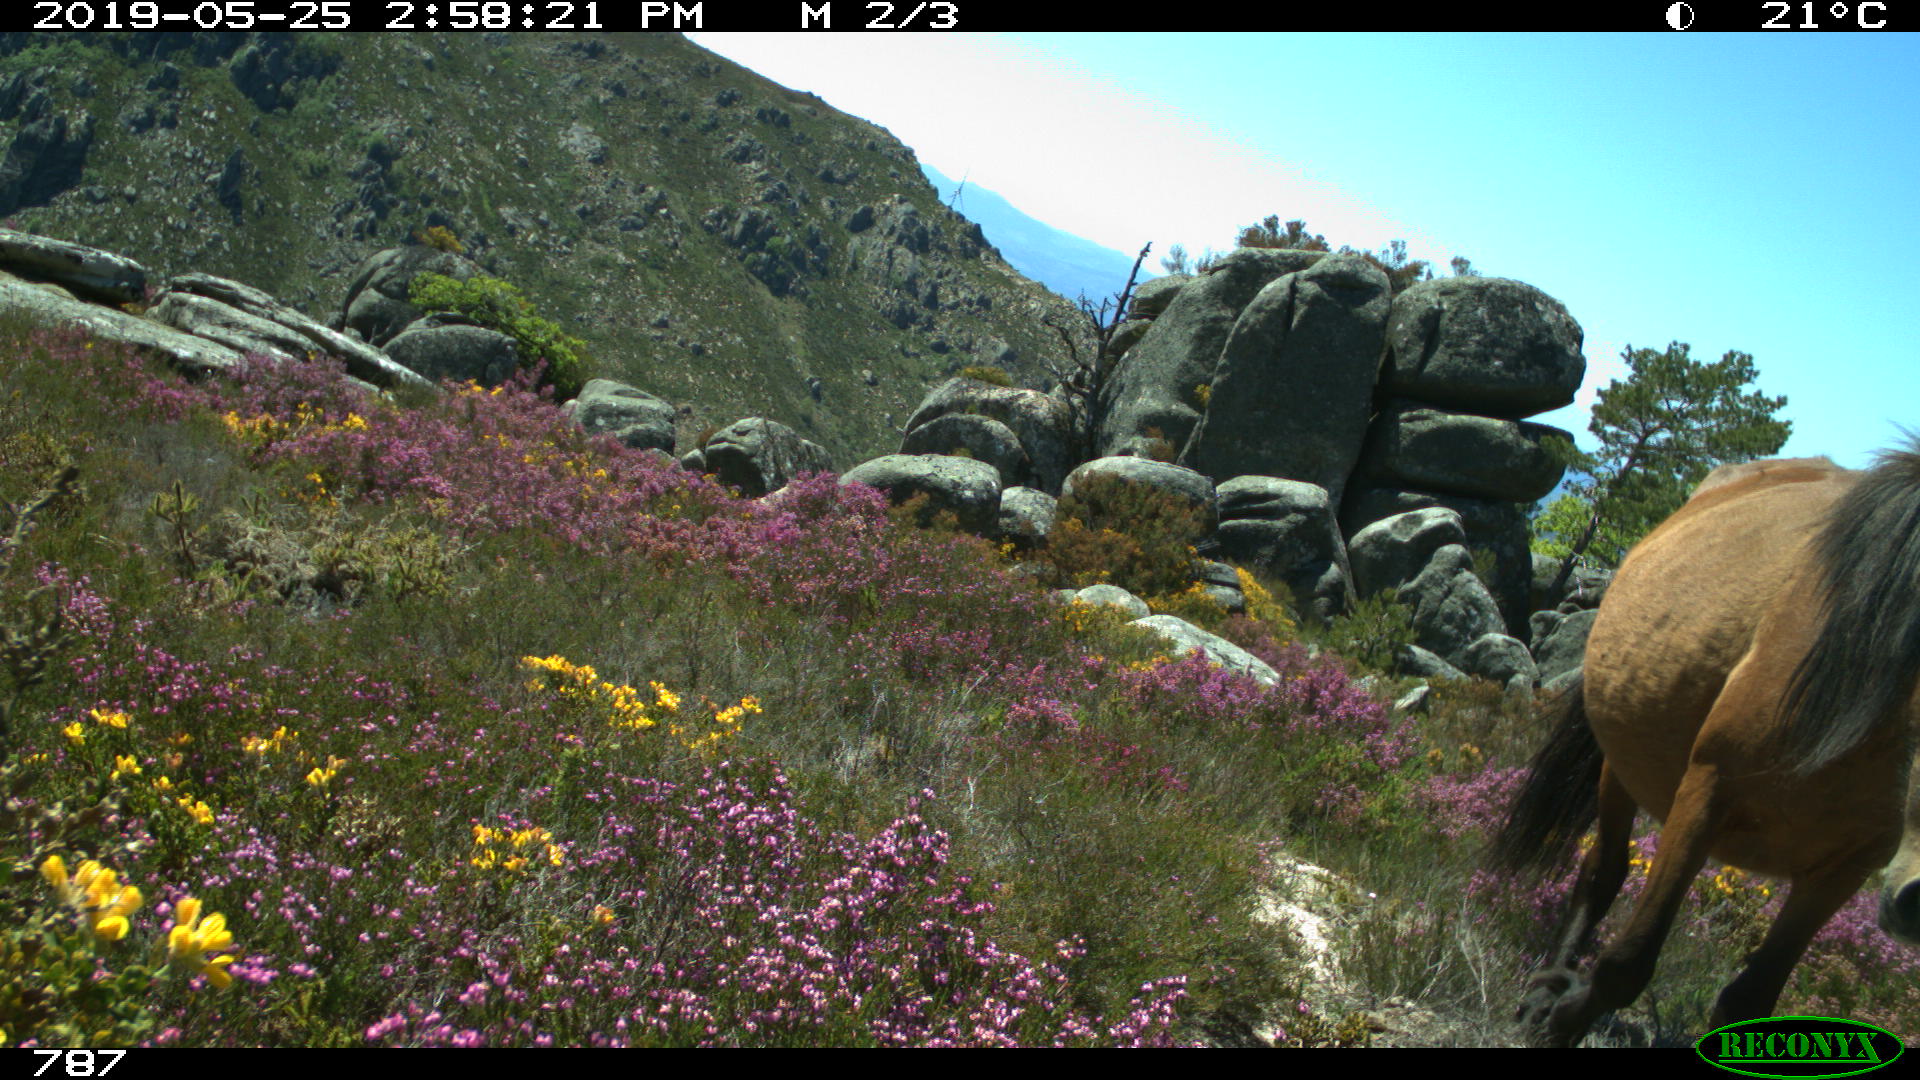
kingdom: Animalia
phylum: Chordata
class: Mammalia
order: Perissodactyla
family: Equidae
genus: Equus
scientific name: Equus caballus
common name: Horse
